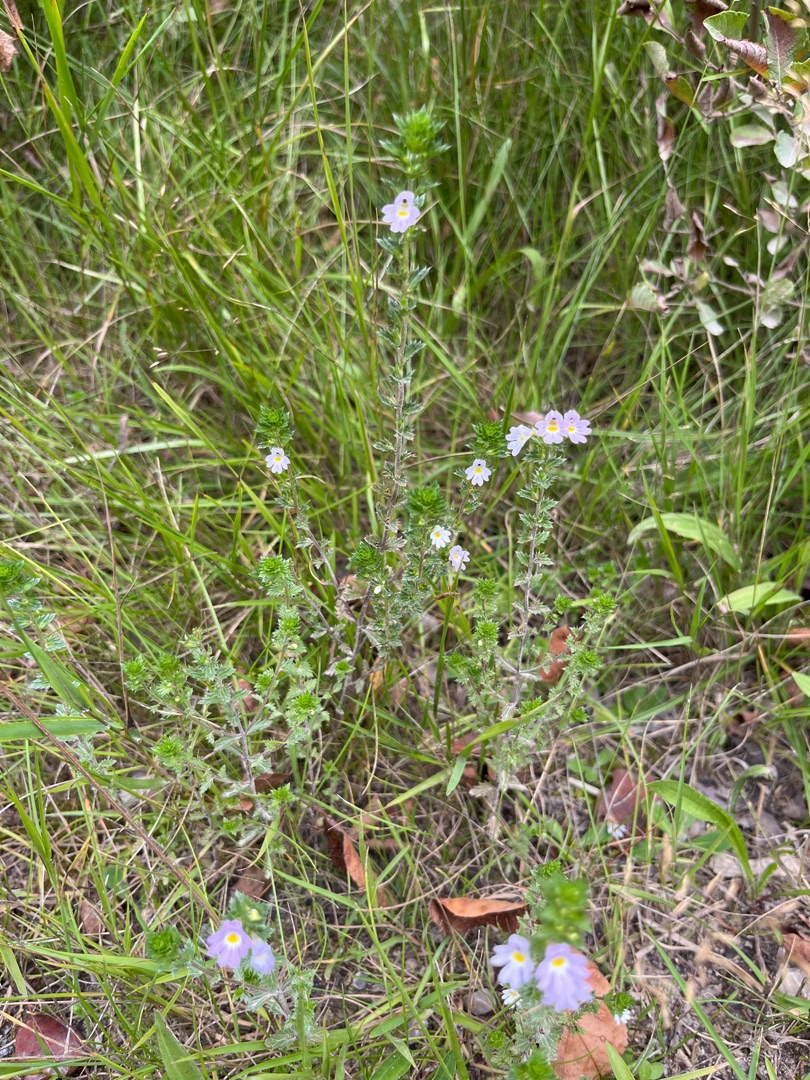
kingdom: Plantae
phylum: Tracheophyta
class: Magnoliopsida
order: Lamiales
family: Orobanchaceae
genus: Euphrasia
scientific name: Euphrasia
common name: Øjentrøstslægten
